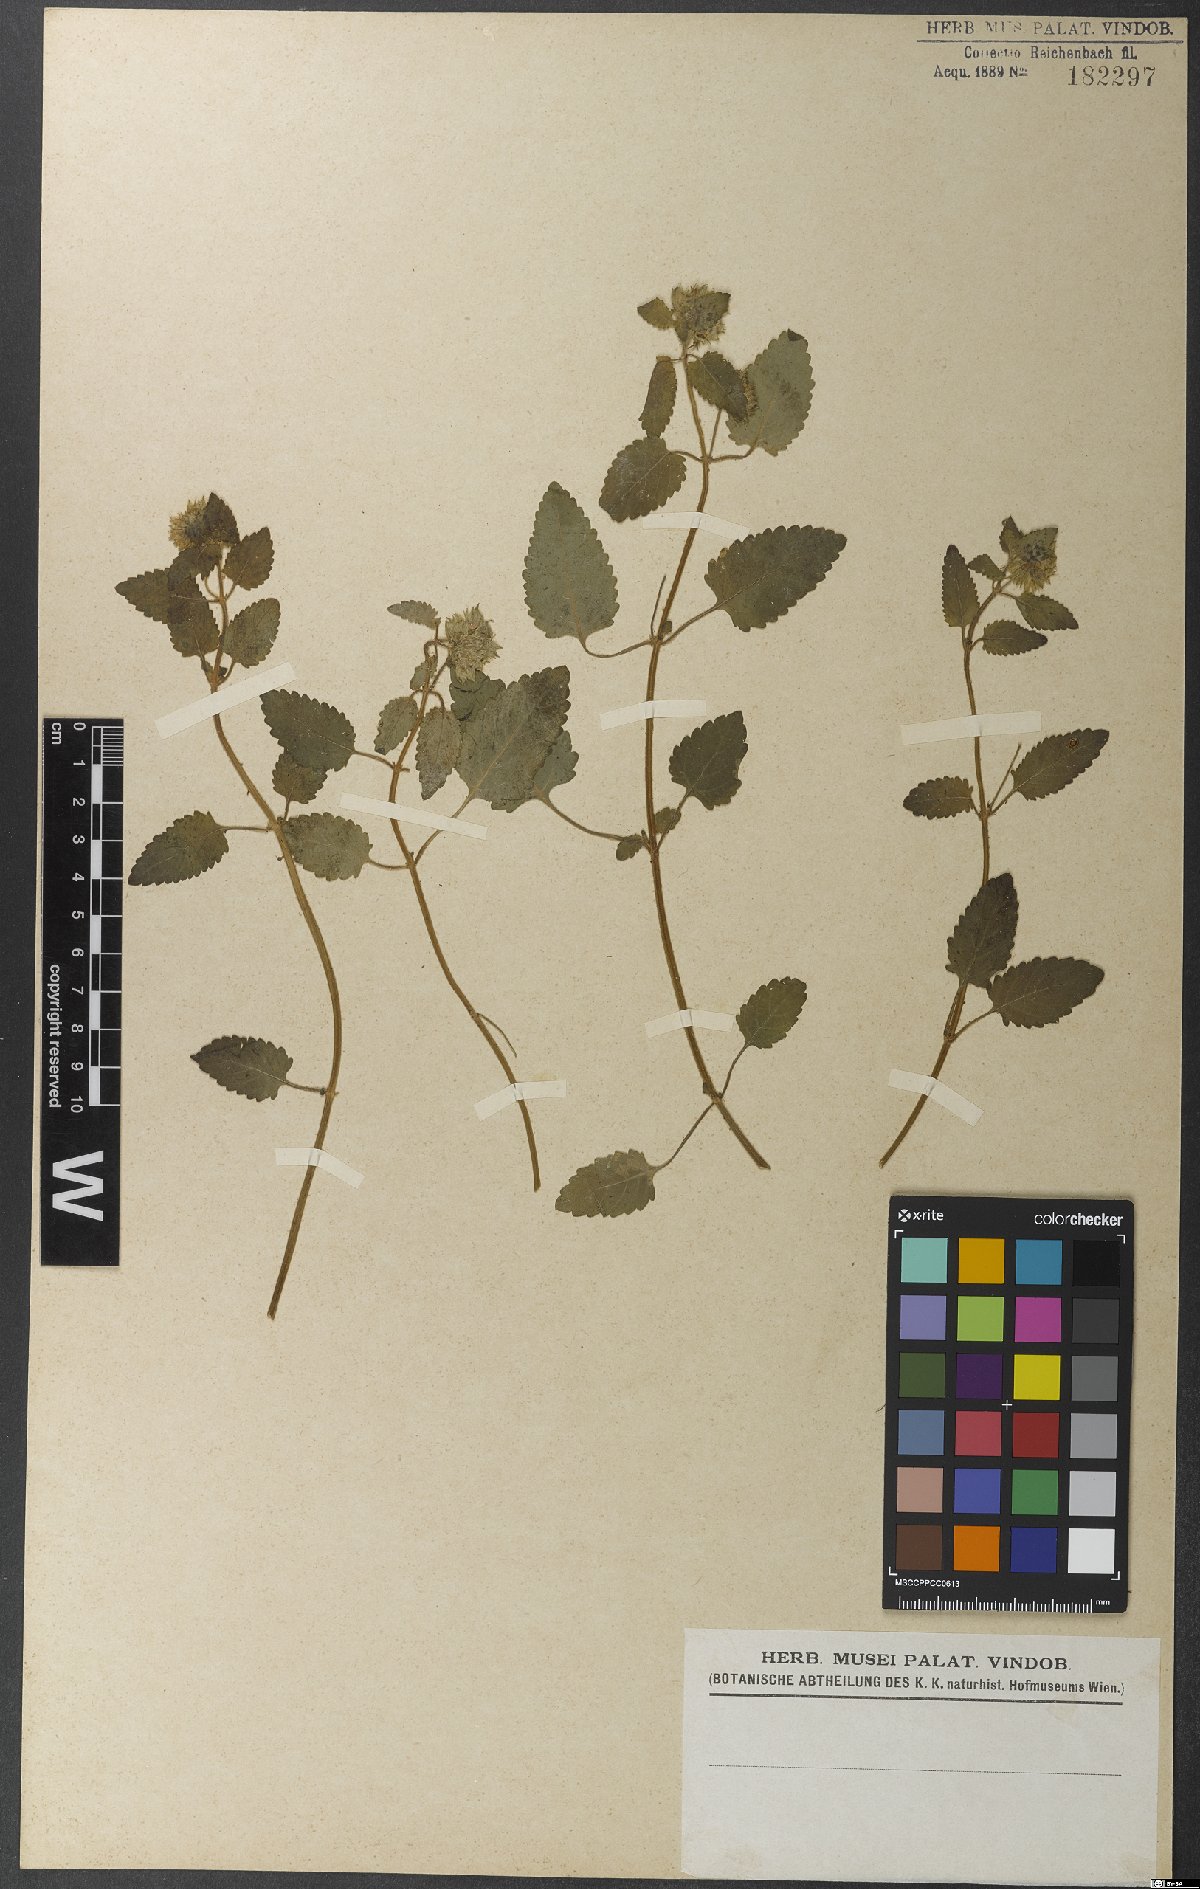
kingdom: Plantae
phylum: Tracheophyta
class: Magnoliopsida
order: Lamiales
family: Lamiaceae
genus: Marsypianthes
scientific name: Marsypianthes chamaedrys
